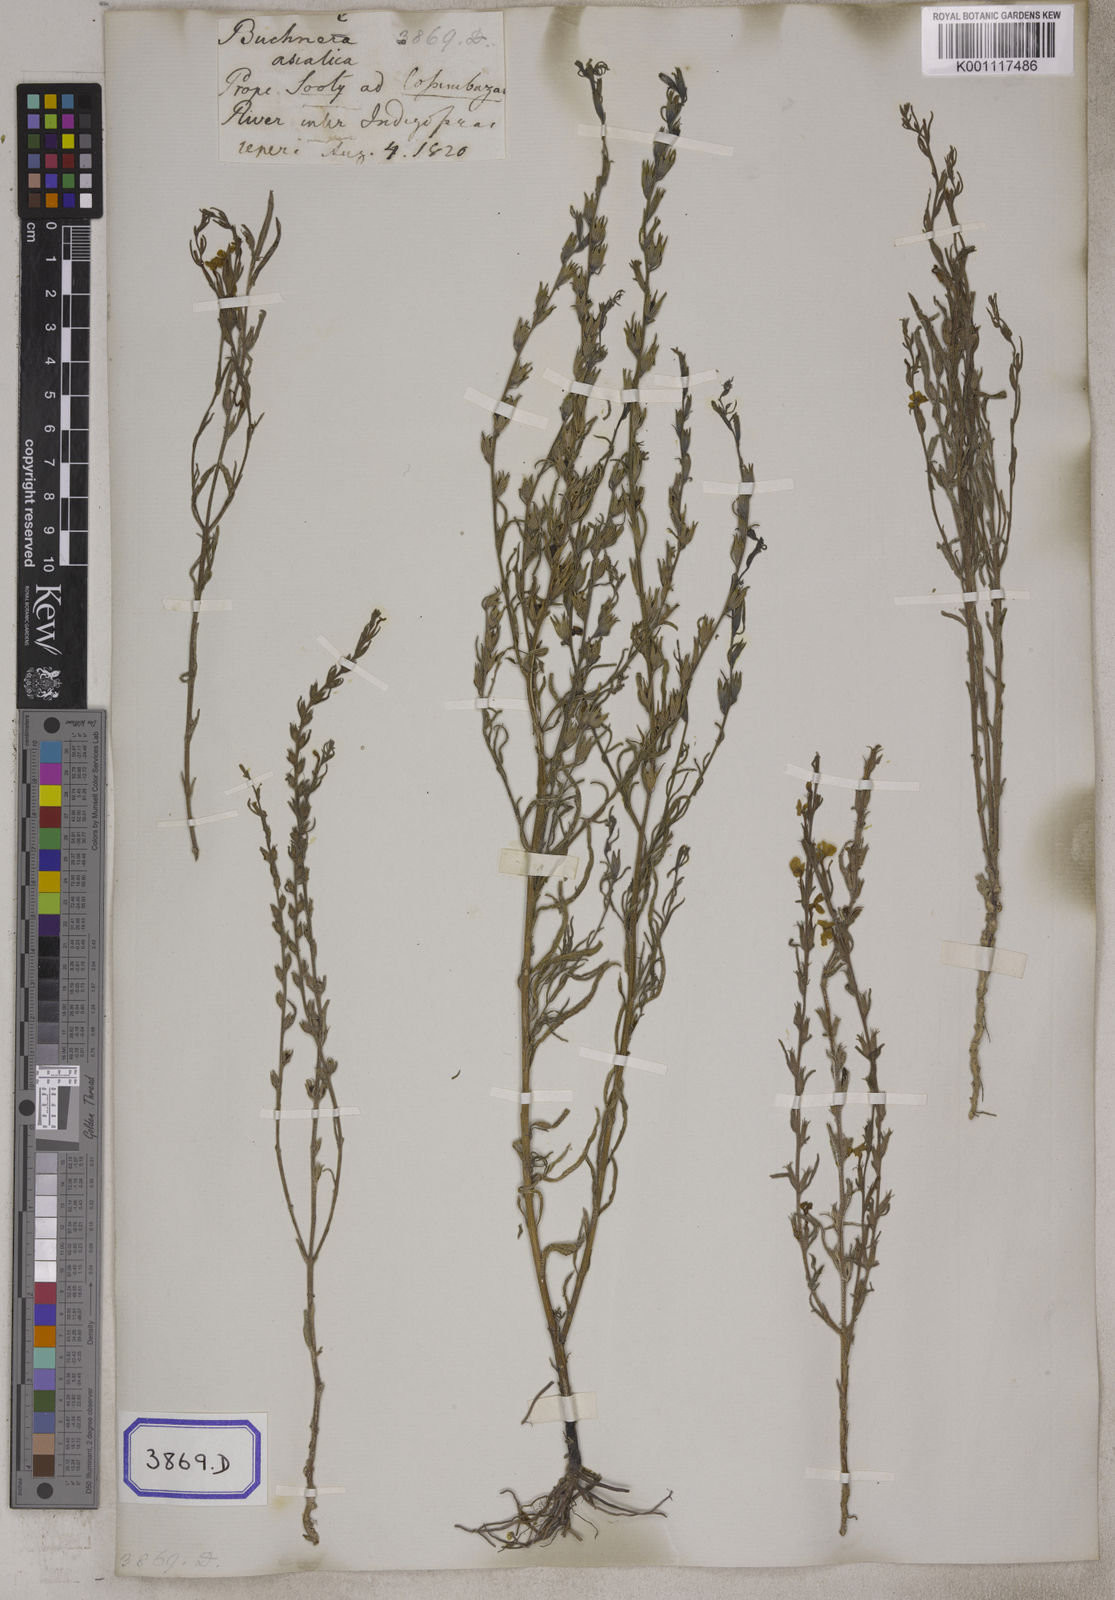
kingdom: Plantae
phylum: Tracheophyta
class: Magnoliopsida
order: Lamiales
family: Orobanchaceae
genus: Buchnera
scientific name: Buchnera
